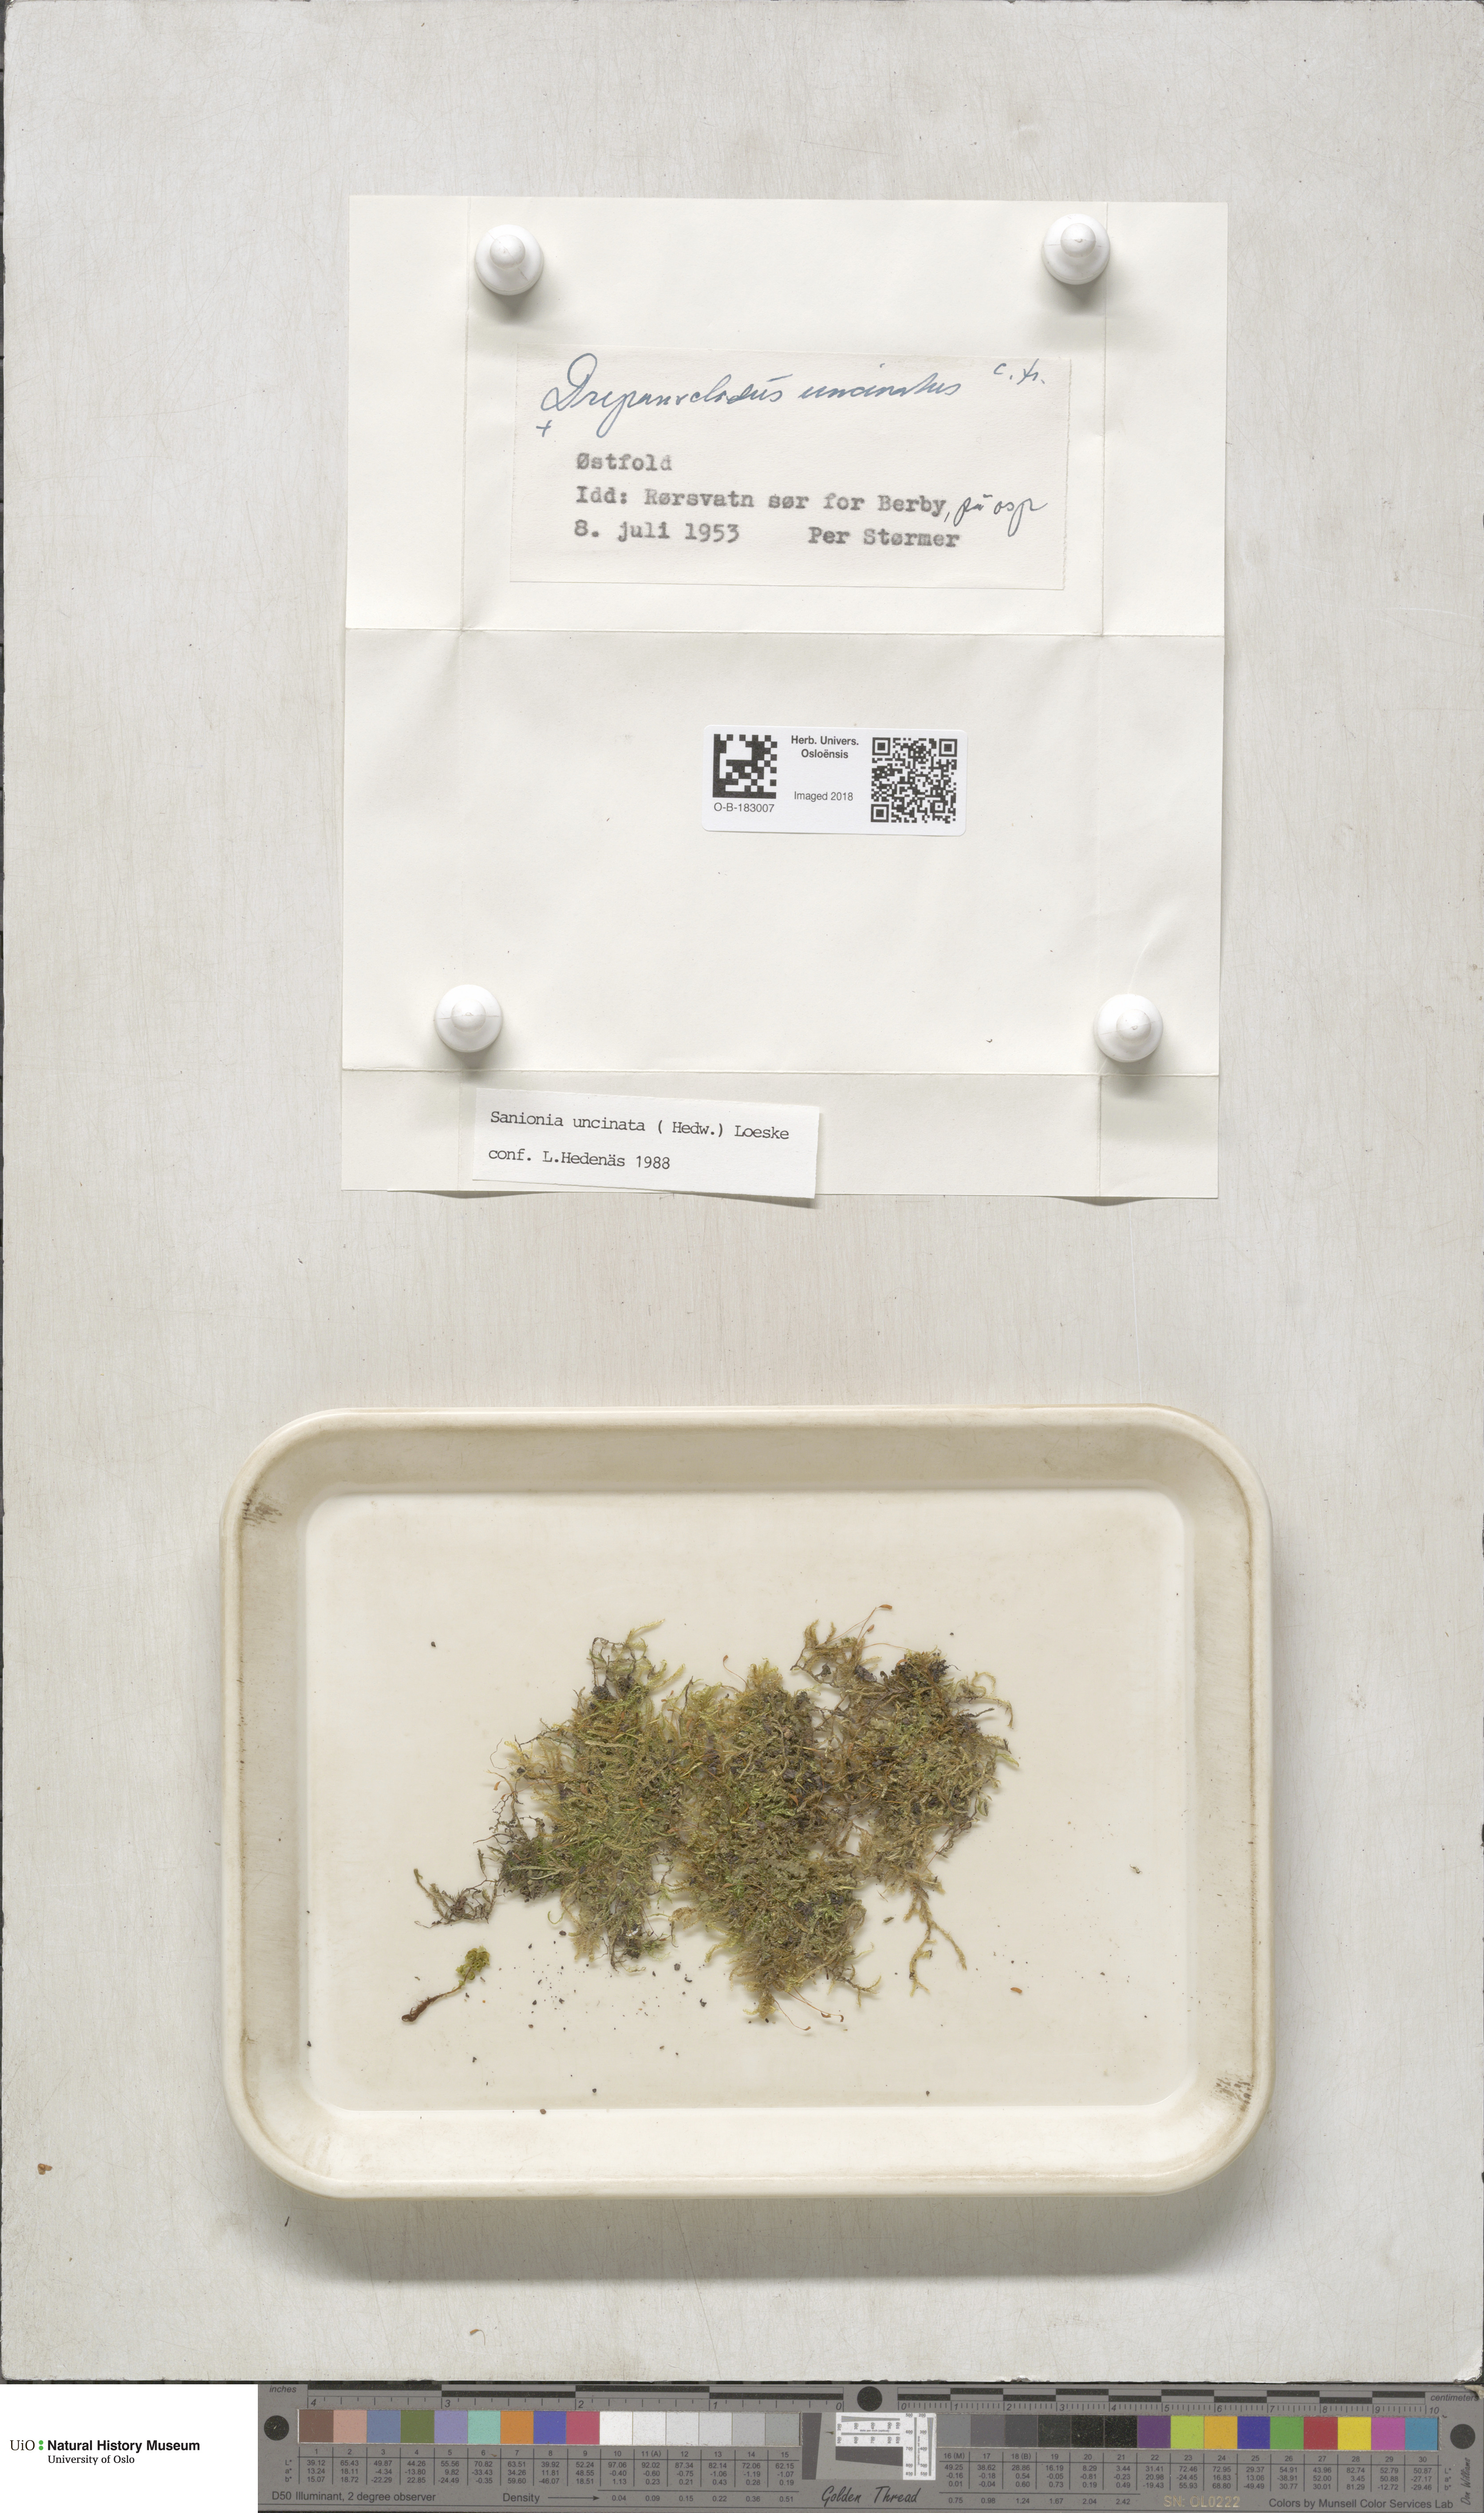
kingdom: Plantae
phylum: Bryophyta
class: Bryopsida
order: Hypnales
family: Scorpidiaceae
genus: Sanionia
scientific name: Sanionia uncinata
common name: Sickle moss
